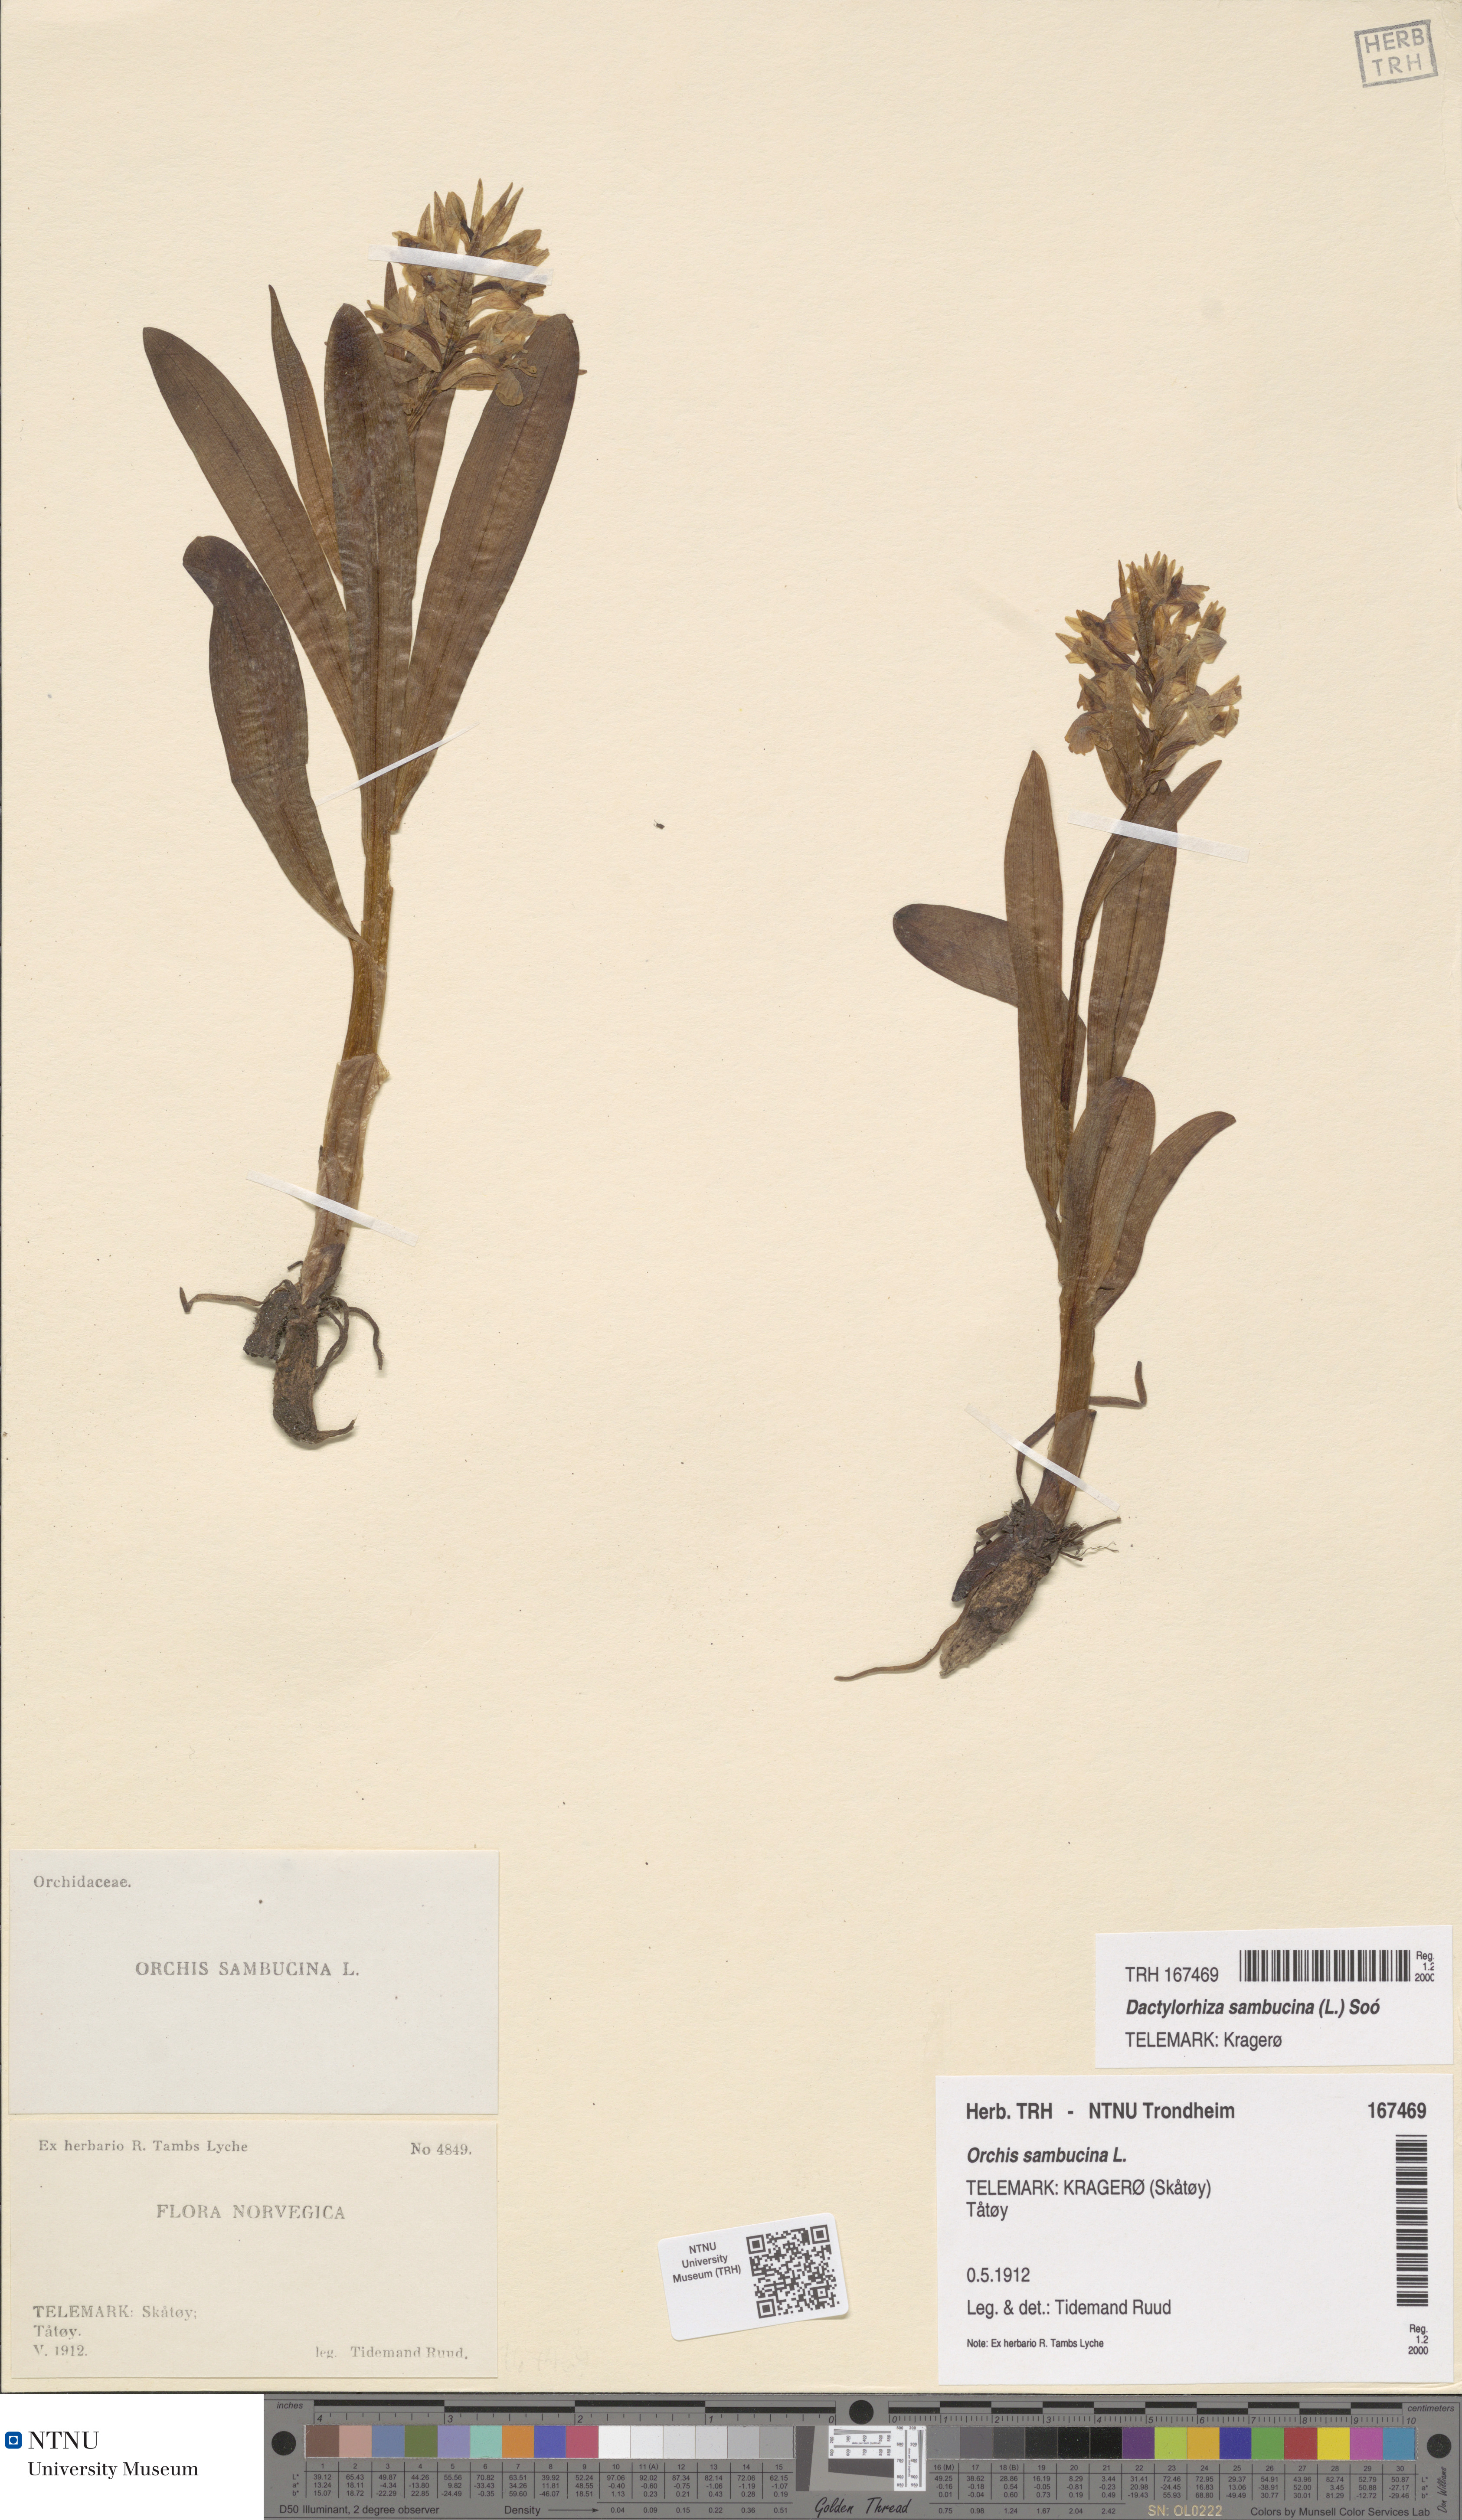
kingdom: Plantae
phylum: Tracheophyta
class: Liliopsida
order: Asparagales
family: Orchidaceae
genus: Dactylorhiza
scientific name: Dactylorhiza sambucina
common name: Elder-flowered orchid
